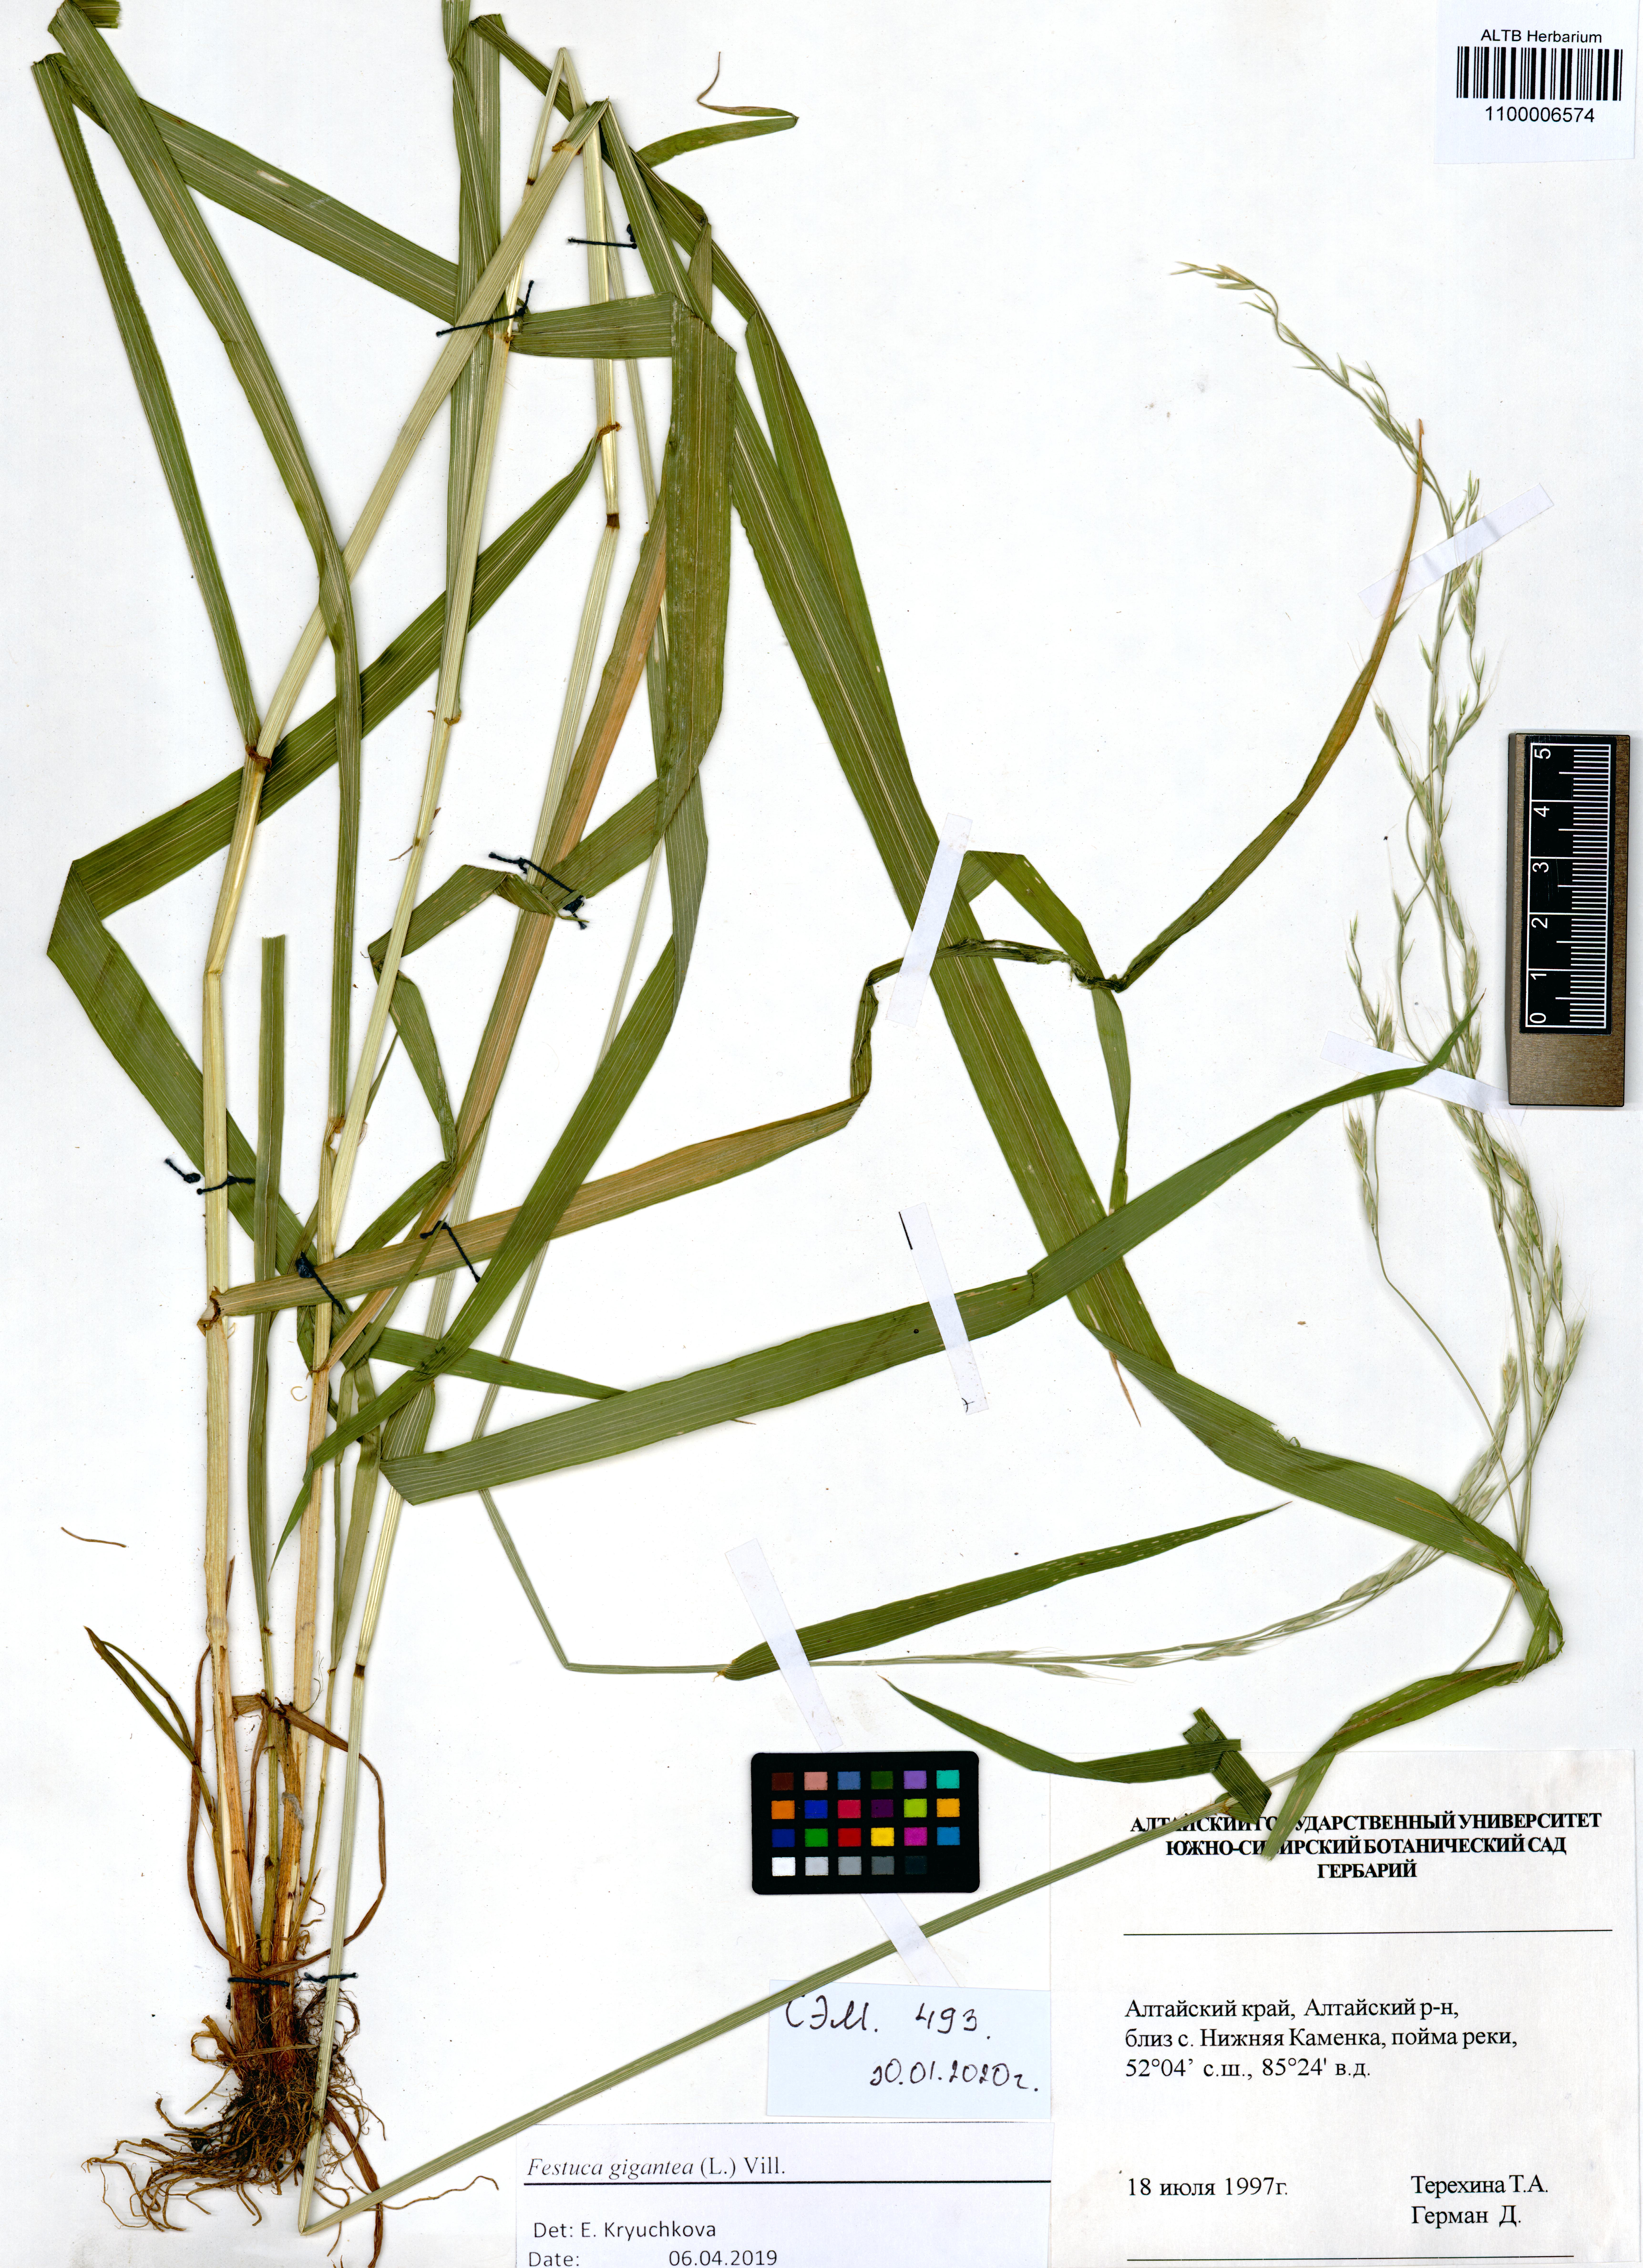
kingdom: Plantae
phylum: Tracheophyta
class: Liliopsida
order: Poales
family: Poaceae
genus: Lolium
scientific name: Lolium giganteum
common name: Giant fescue
